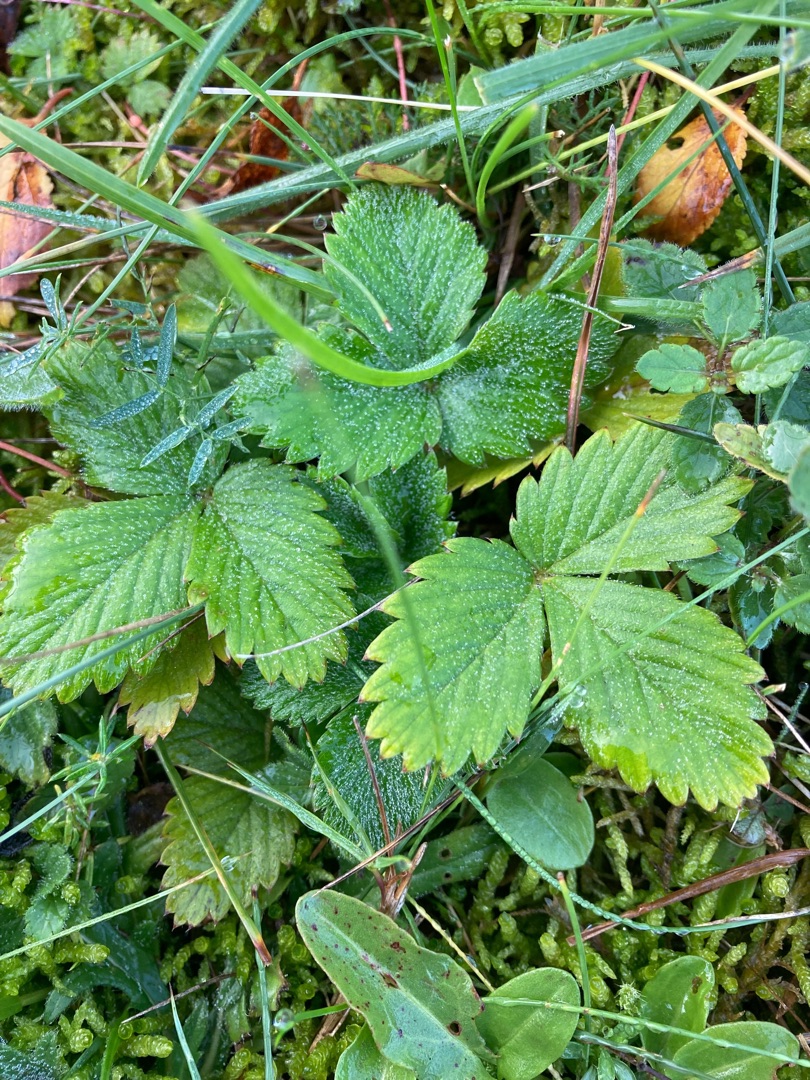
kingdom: Plantae
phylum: Tracheophyta
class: Magnoliopsida
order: Rosales
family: Rosaceae
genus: Fragaria
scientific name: Fragaria vesca
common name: Skov-jordbær
